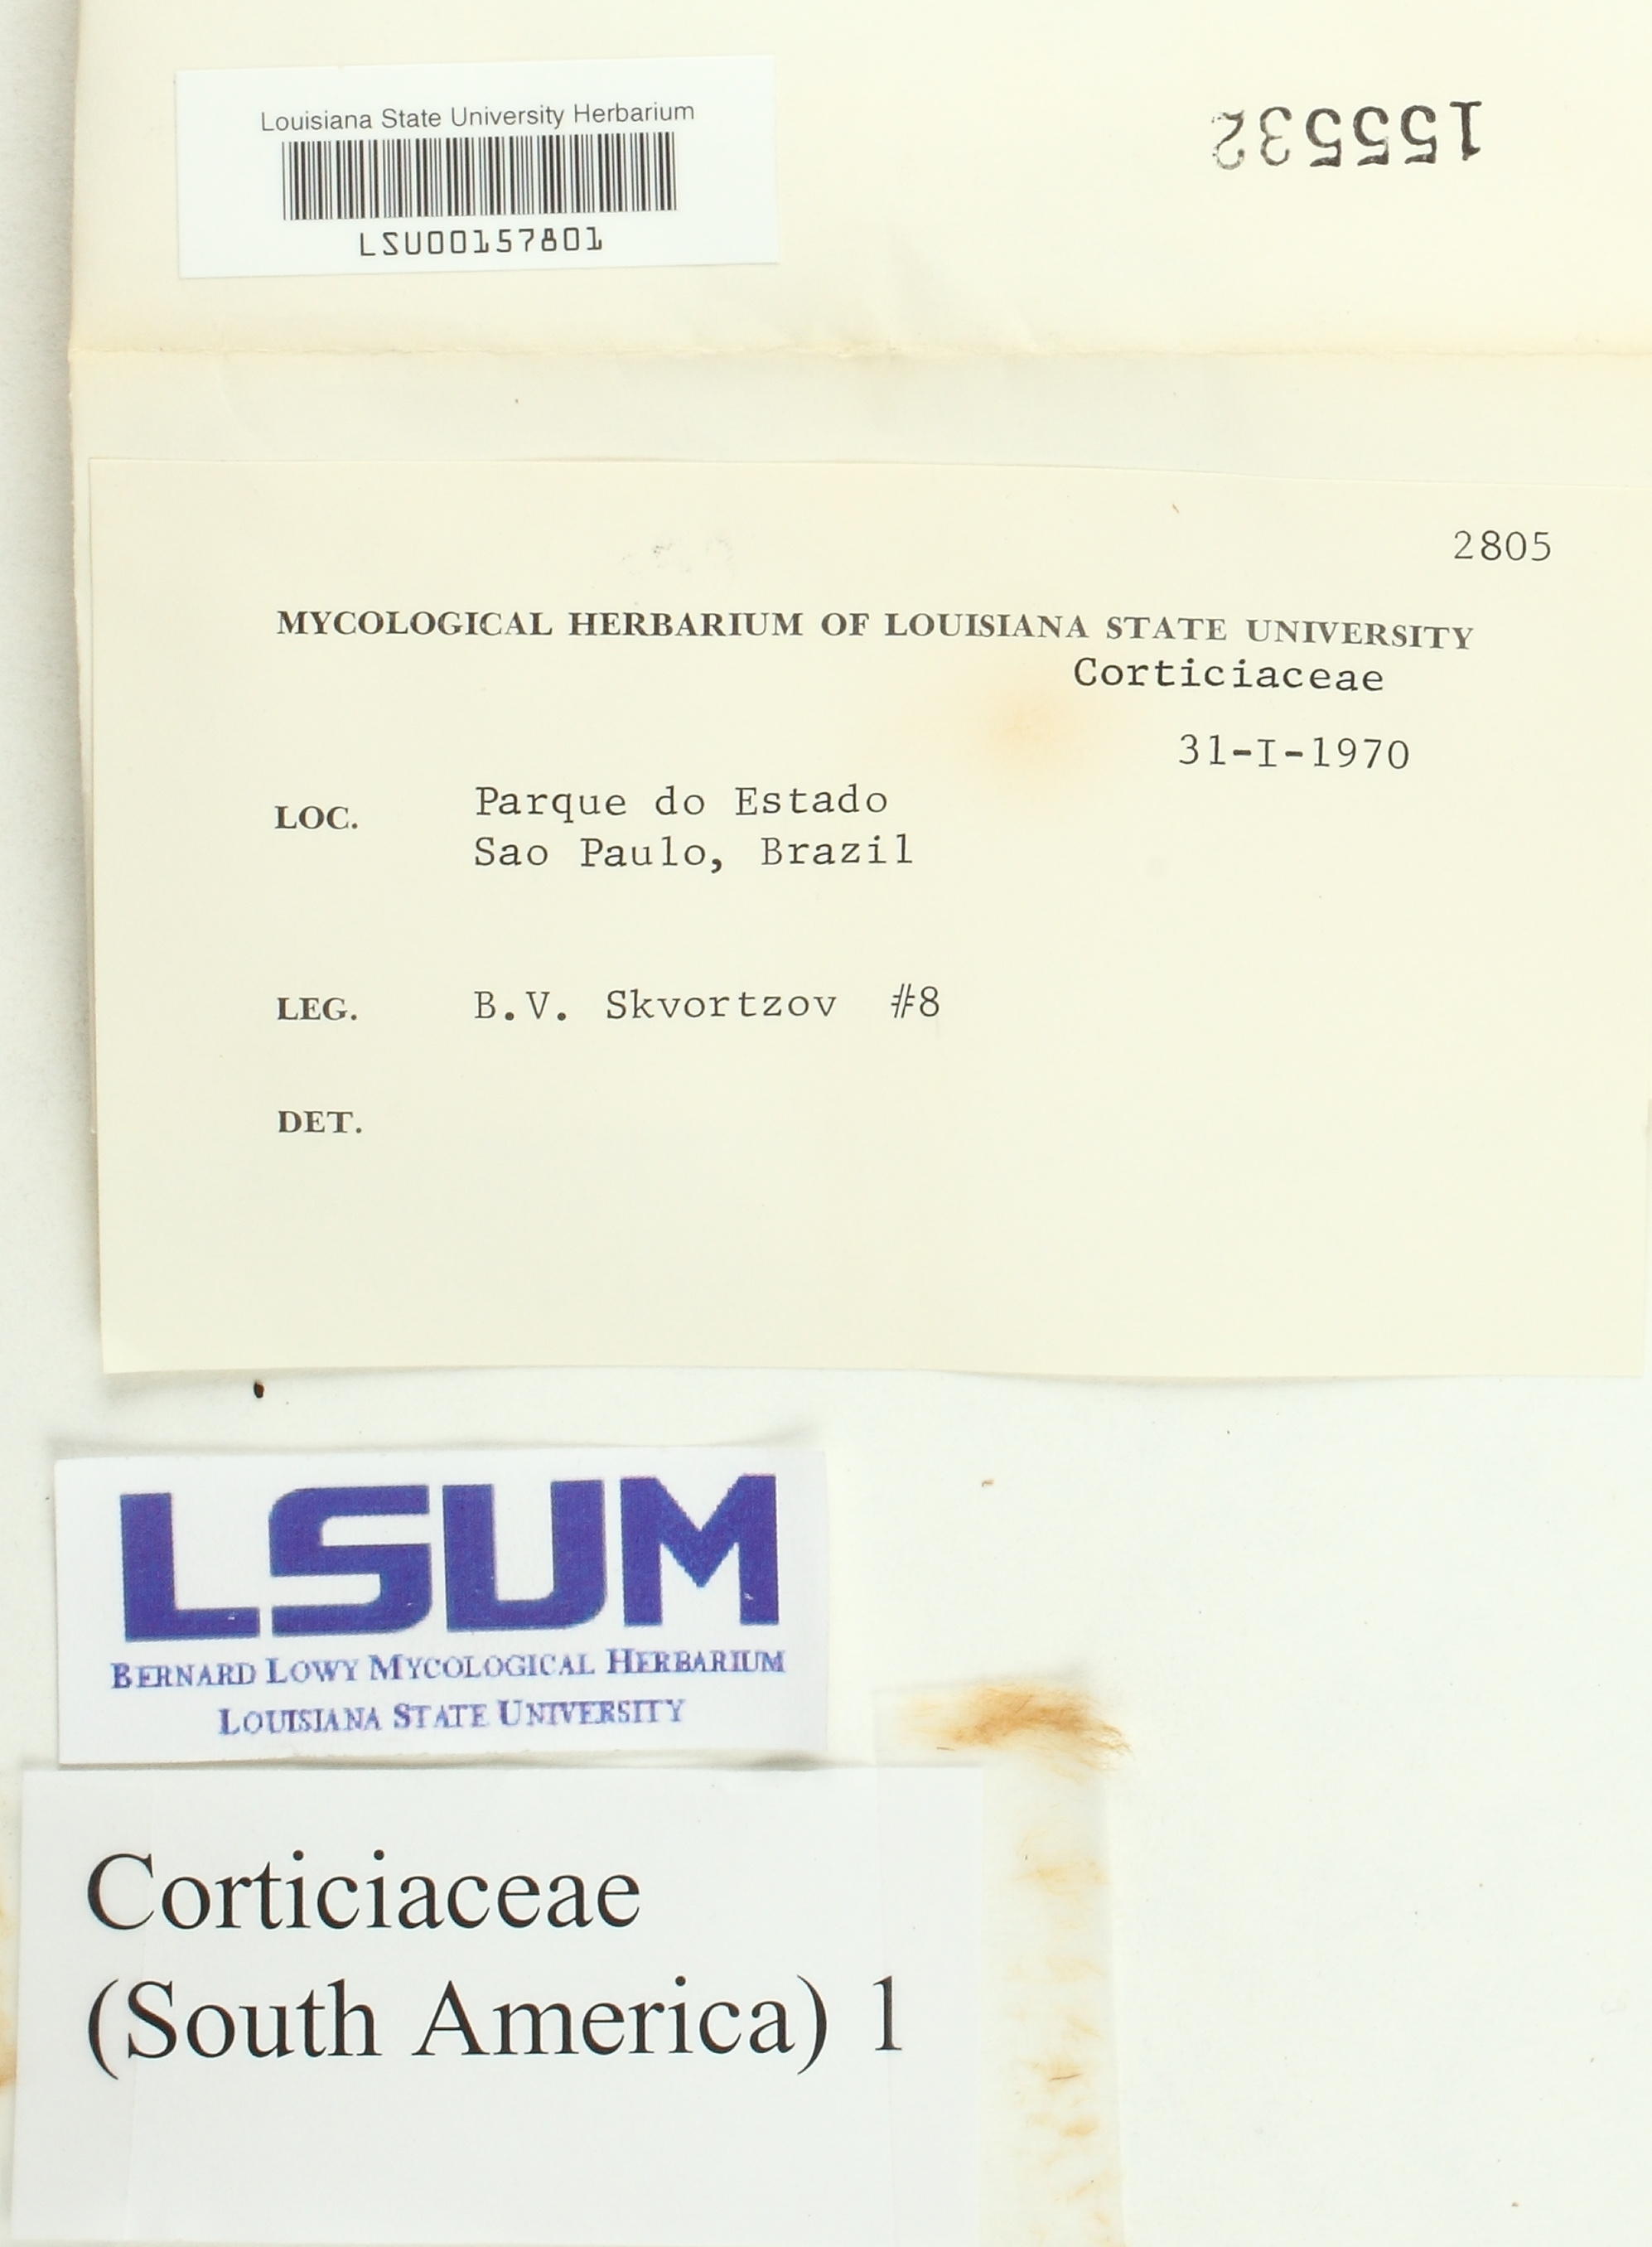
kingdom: Fungi
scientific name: Fungi
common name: Fungi
